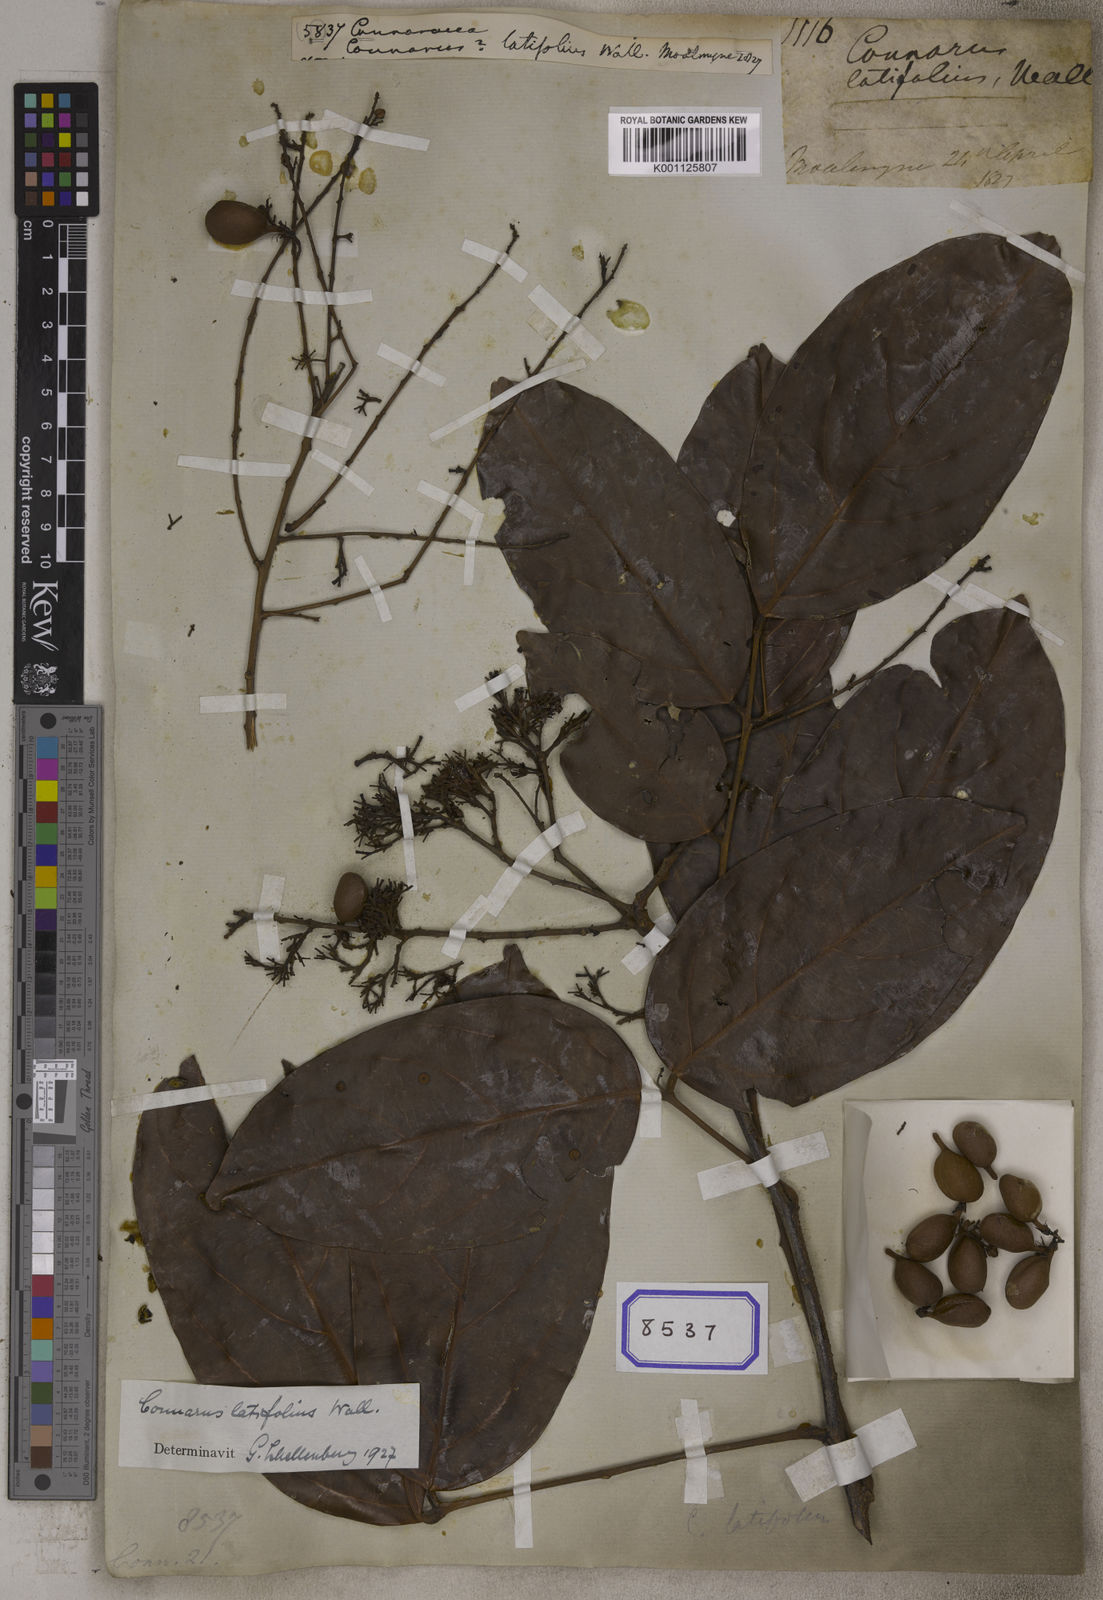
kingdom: Plantae
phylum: Tracheophyta
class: Magnoliopsida
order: Oxalidales
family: Connaraceae
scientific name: Connaraceae
